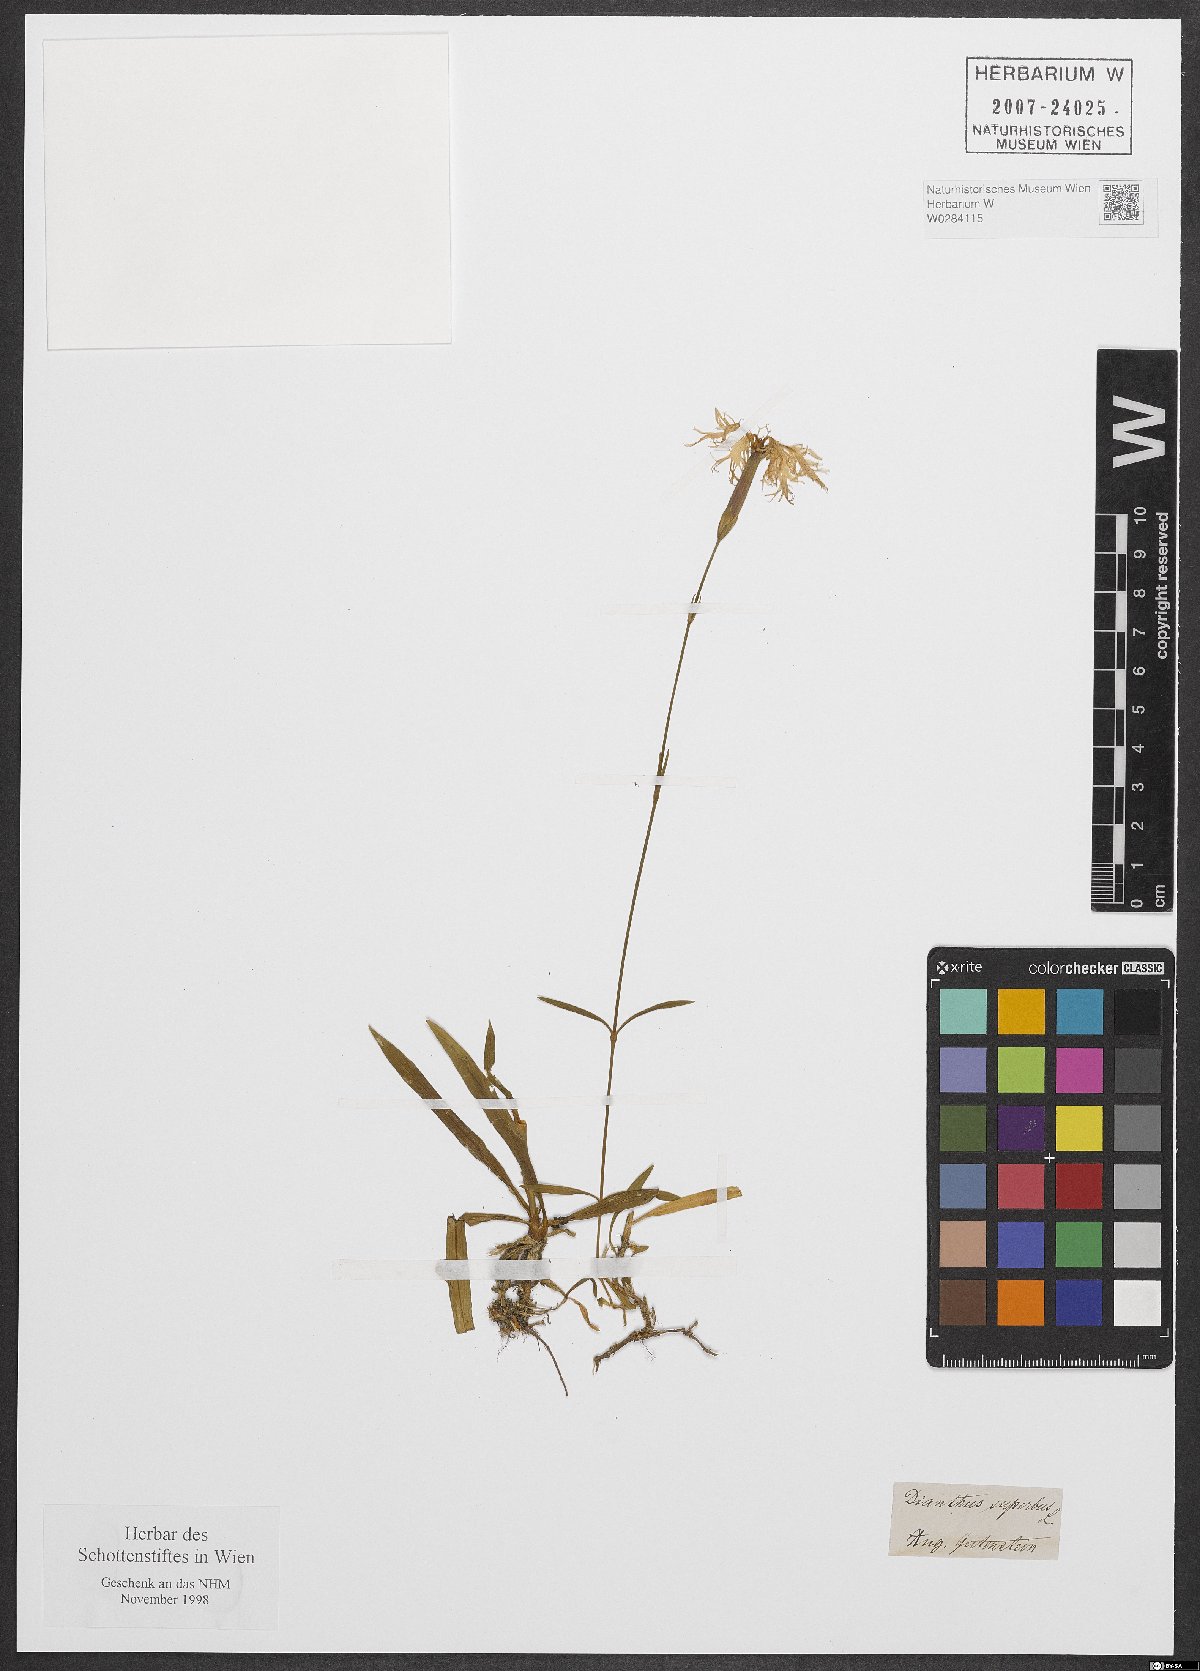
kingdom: Plantae
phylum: Tracheophyta
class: Magnoliopsida
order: Caryophyllales
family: Caryophyllaceae
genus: Dianthus
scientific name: Dianthus superbus
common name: Fringed pink
